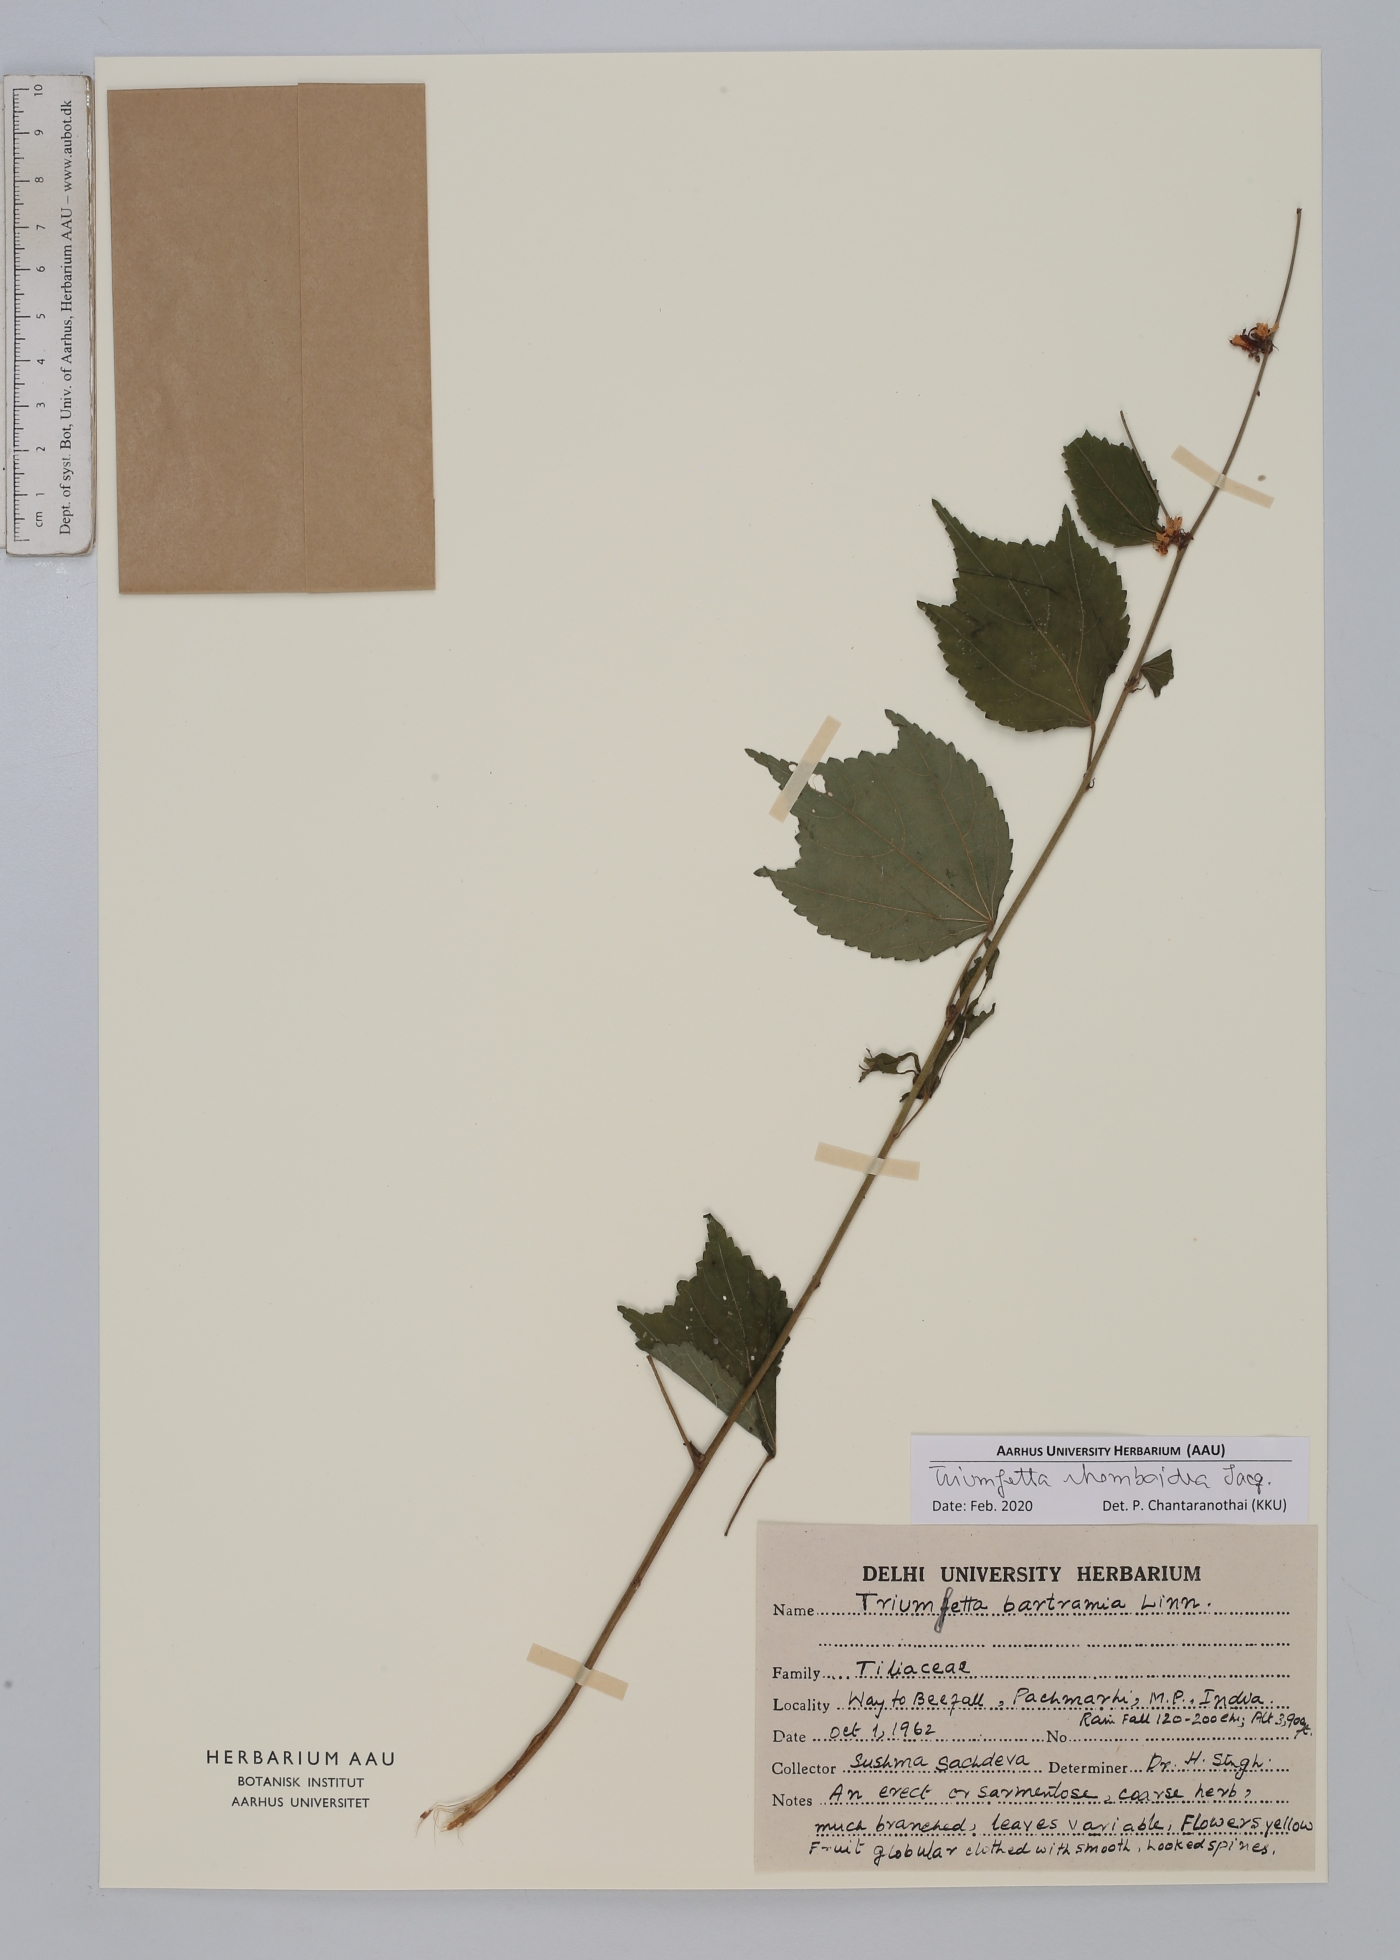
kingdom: Plantae
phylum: Tracheophyta
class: Magnoliopsida
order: Malvales
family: Malvaceae
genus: Triumfetta
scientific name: Triumfetta rhomboidea
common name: Diamond burbark
